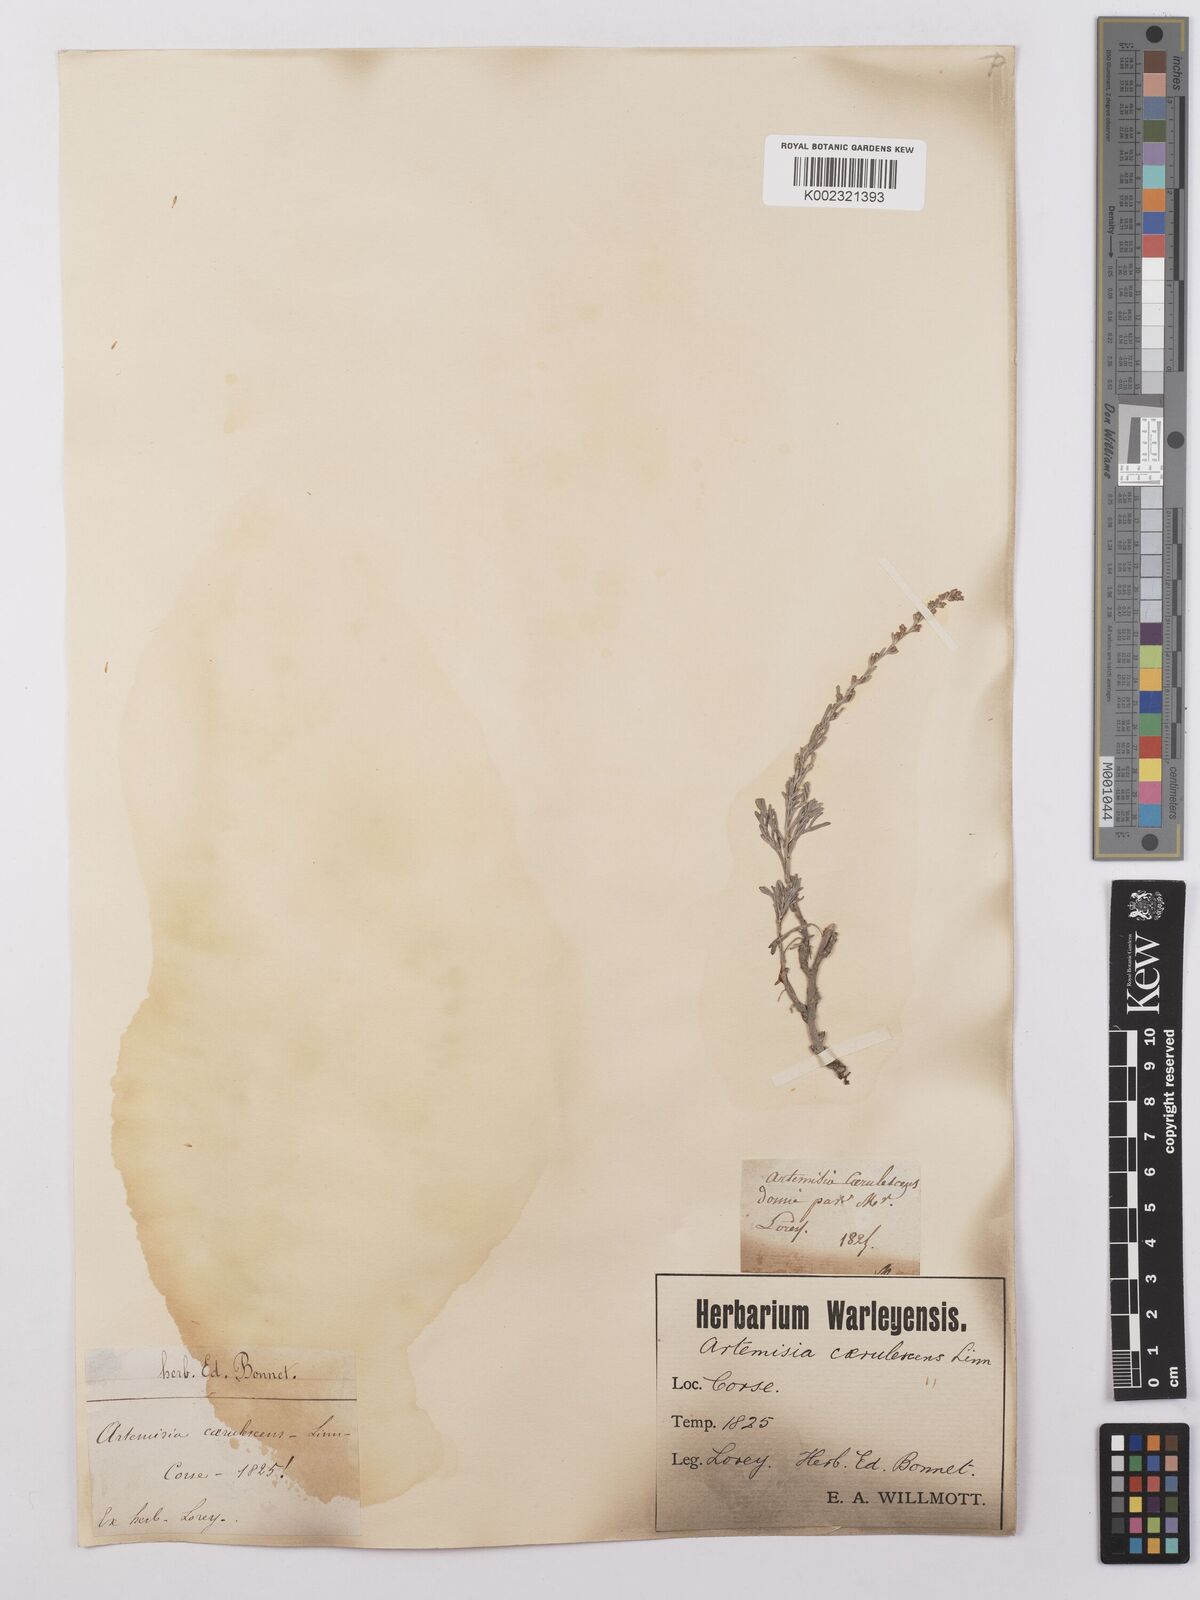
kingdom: Plantae
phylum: Tracheophyta
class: Magnoliopsida
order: Asterales
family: Asteraceae
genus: Artemisia
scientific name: Artemisia caerulescens
